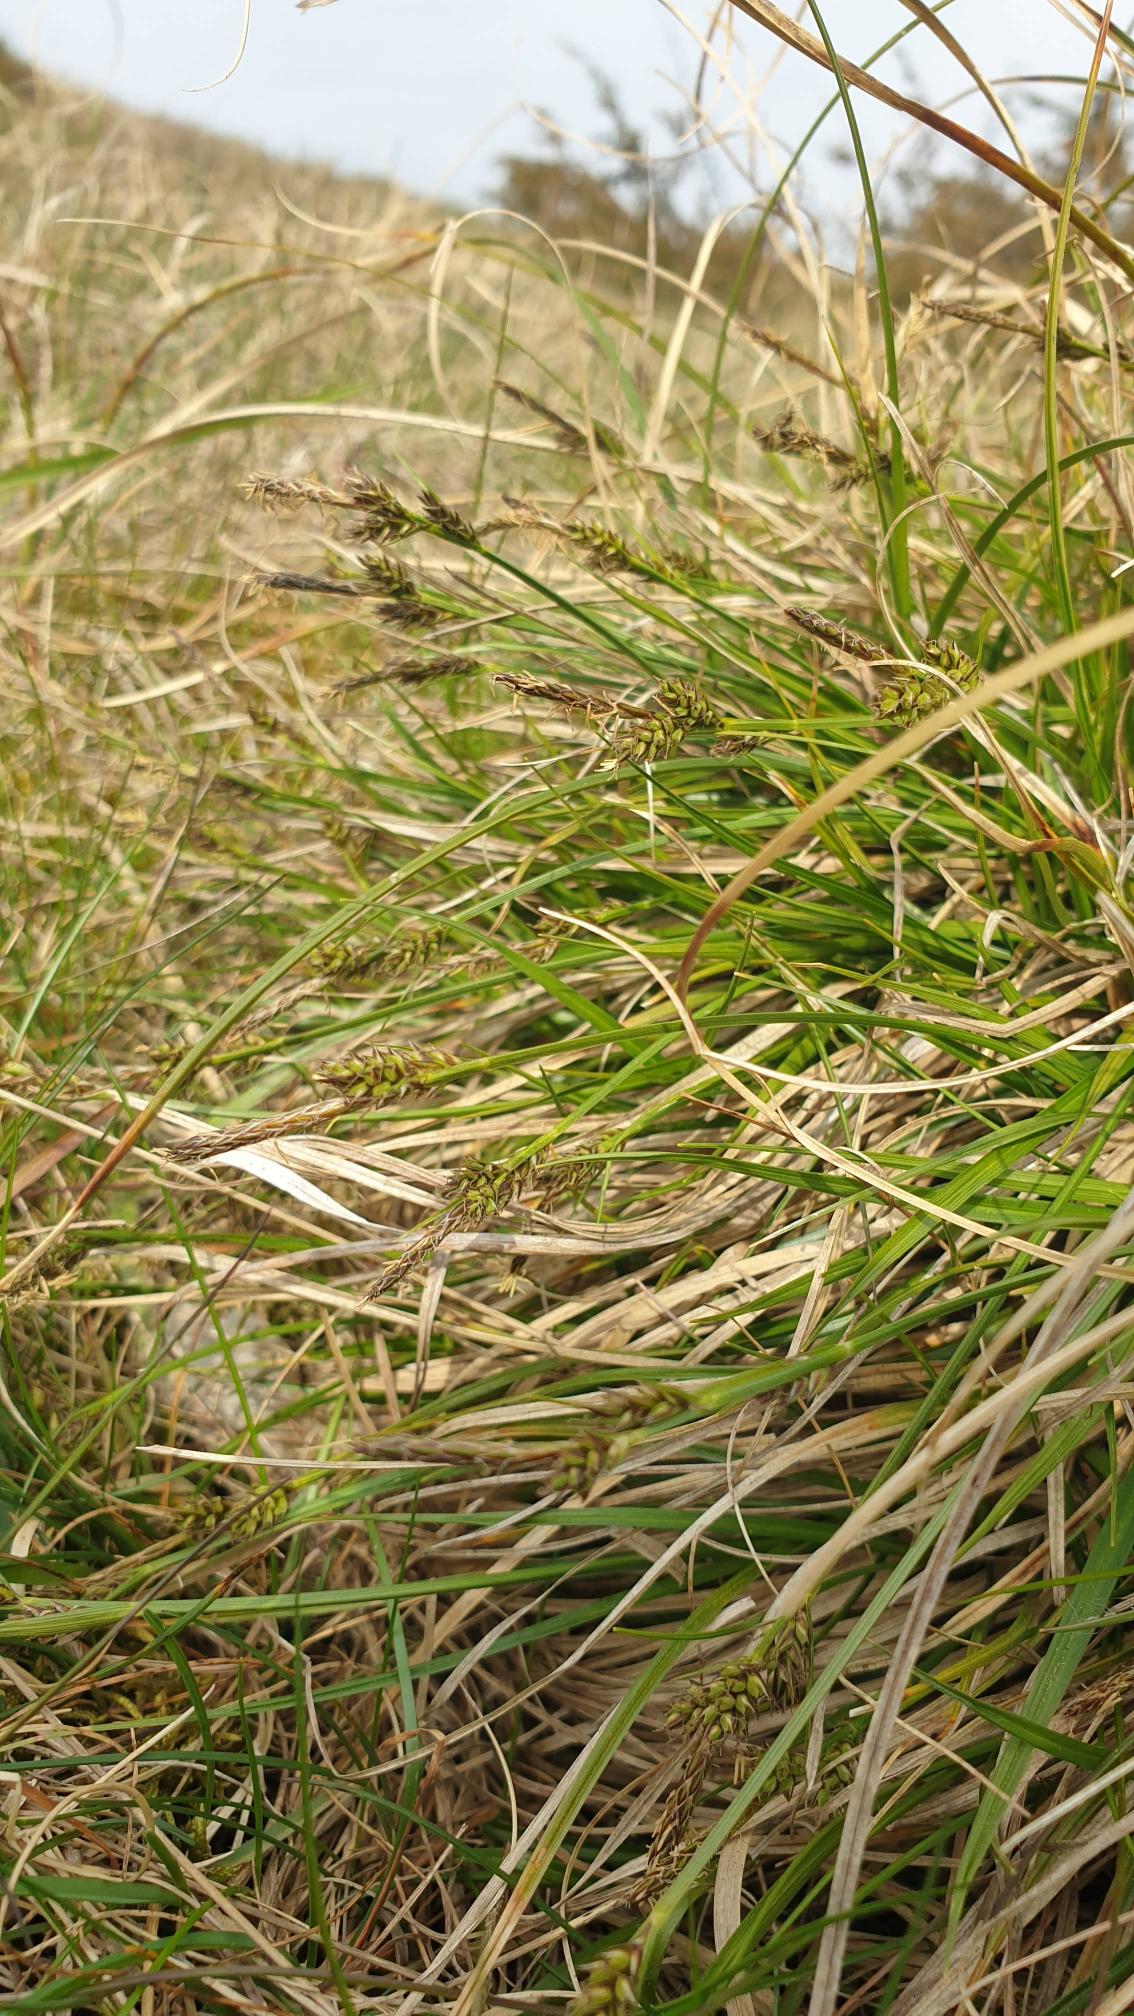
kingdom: Plantae
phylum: Tracheophyta
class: Liliopsida
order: Poales
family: Cyperaceae
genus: Carex
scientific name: Carex pilulifera
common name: Pille-star
